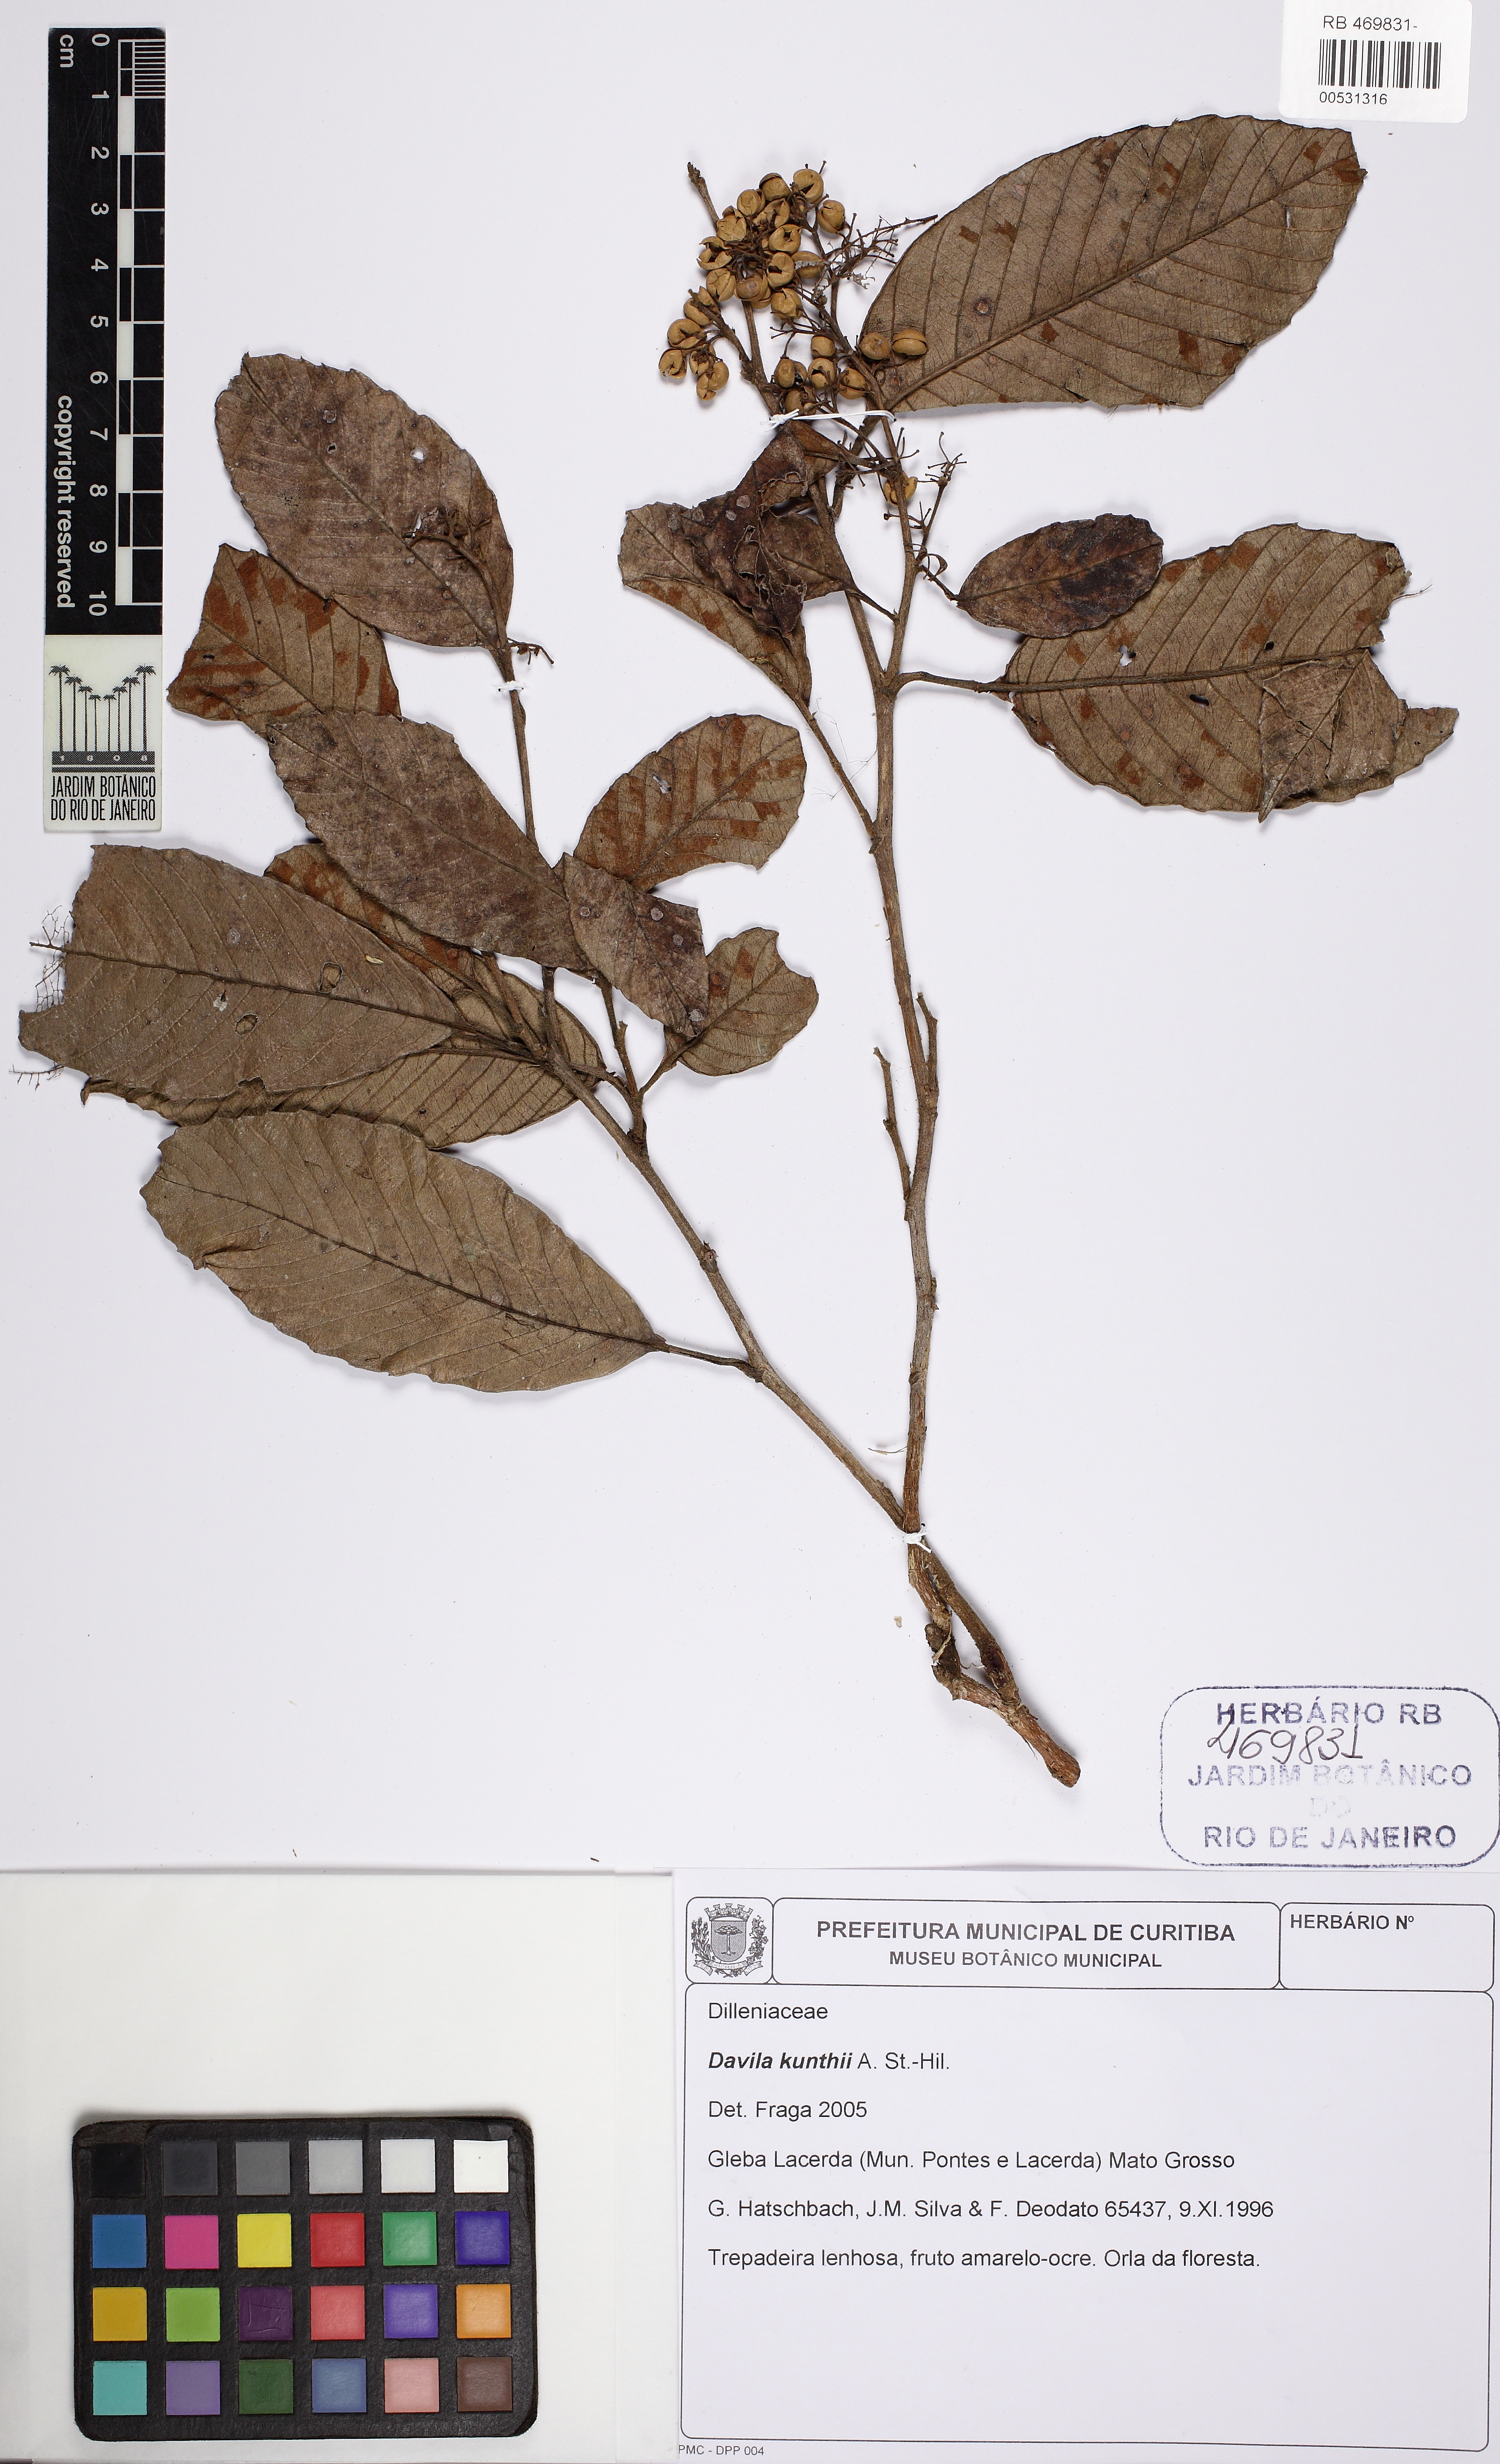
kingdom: Plantae
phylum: Tracheophyta
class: Magnoliopsida
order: Dilleniales
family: Dilleniaceae
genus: Davilla
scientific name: Davilla kunthii
